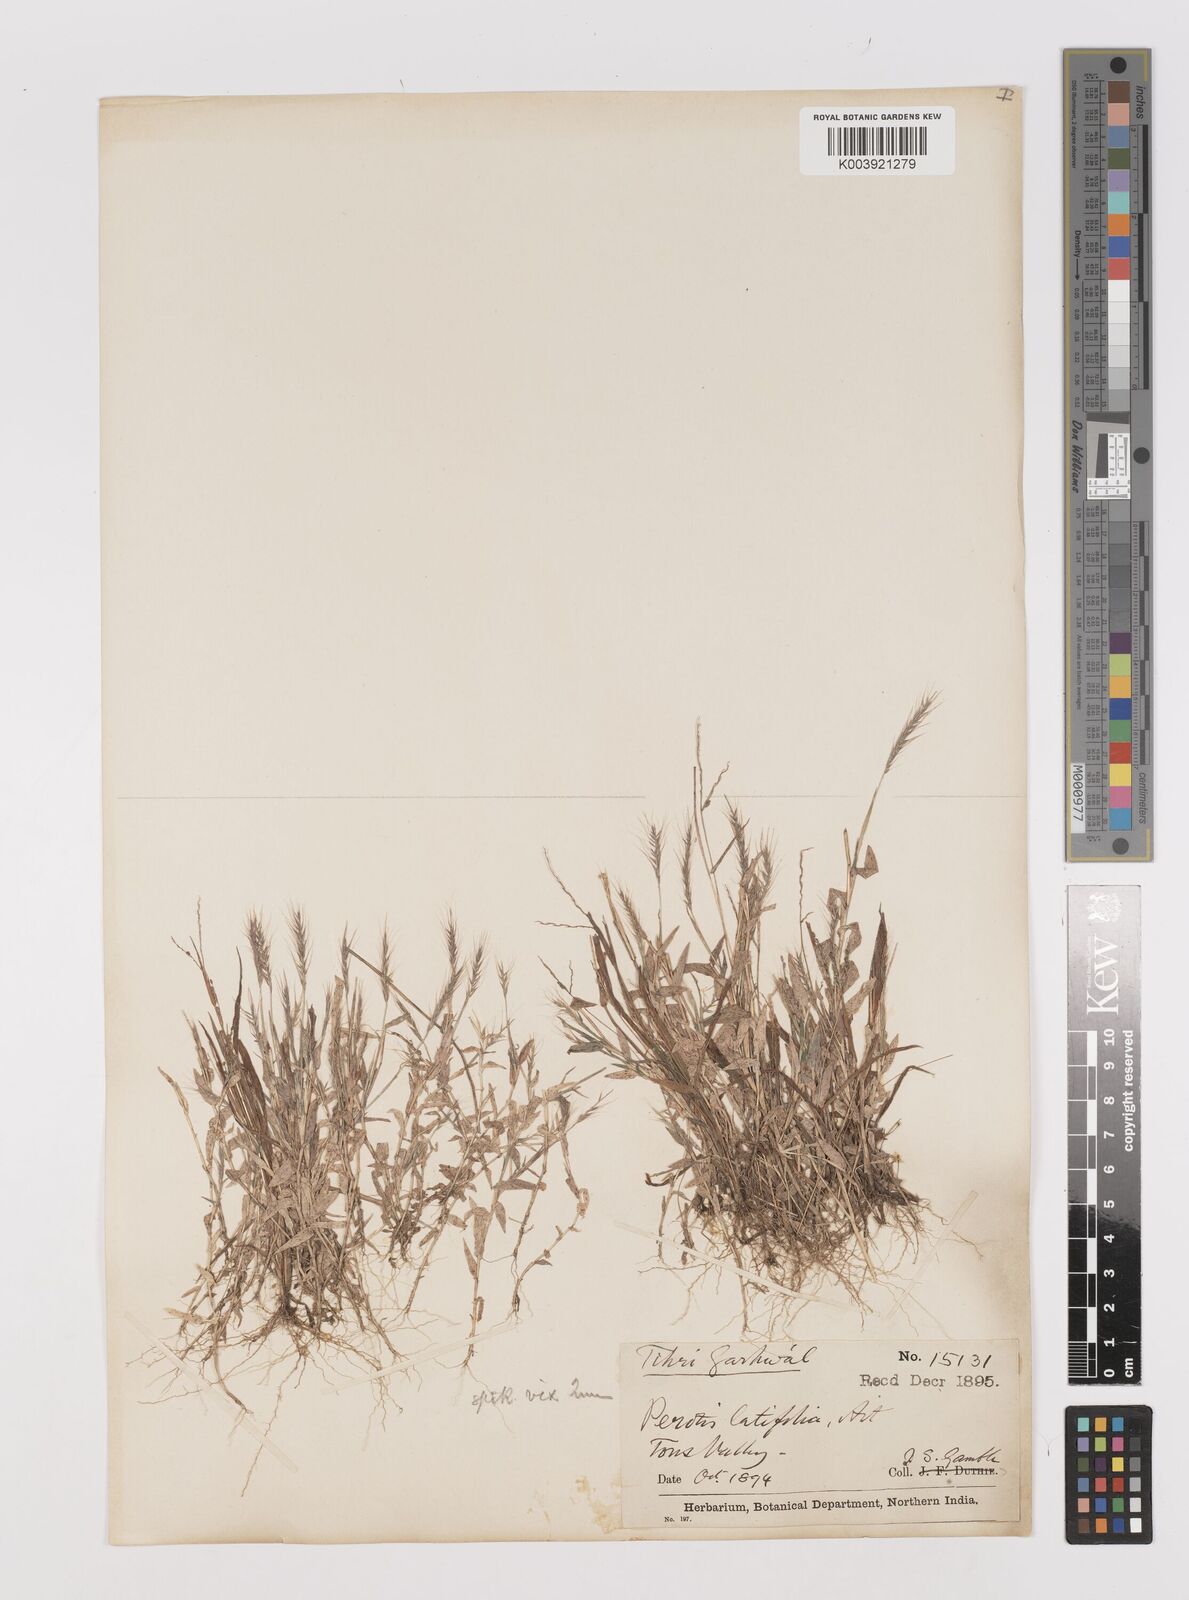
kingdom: Plantae
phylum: Tracheophyta
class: Liliopsida
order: Poales
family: Poaceae
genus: Perotis
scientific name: Perotis hordeiformis
